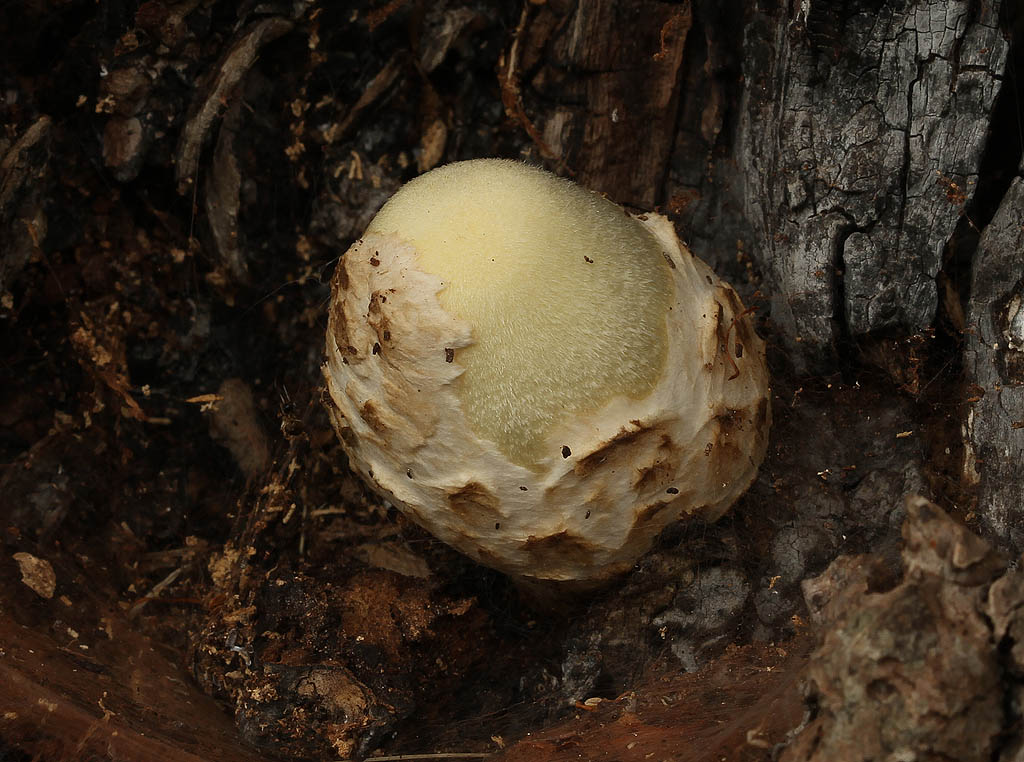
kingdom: Fungi
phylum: Basidiomycota
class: Agaricomycetes
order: Agaricales
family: Pluteaceae
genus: Volvariella
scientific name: Volvariella bombycina
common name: silkehåret posesvamp
